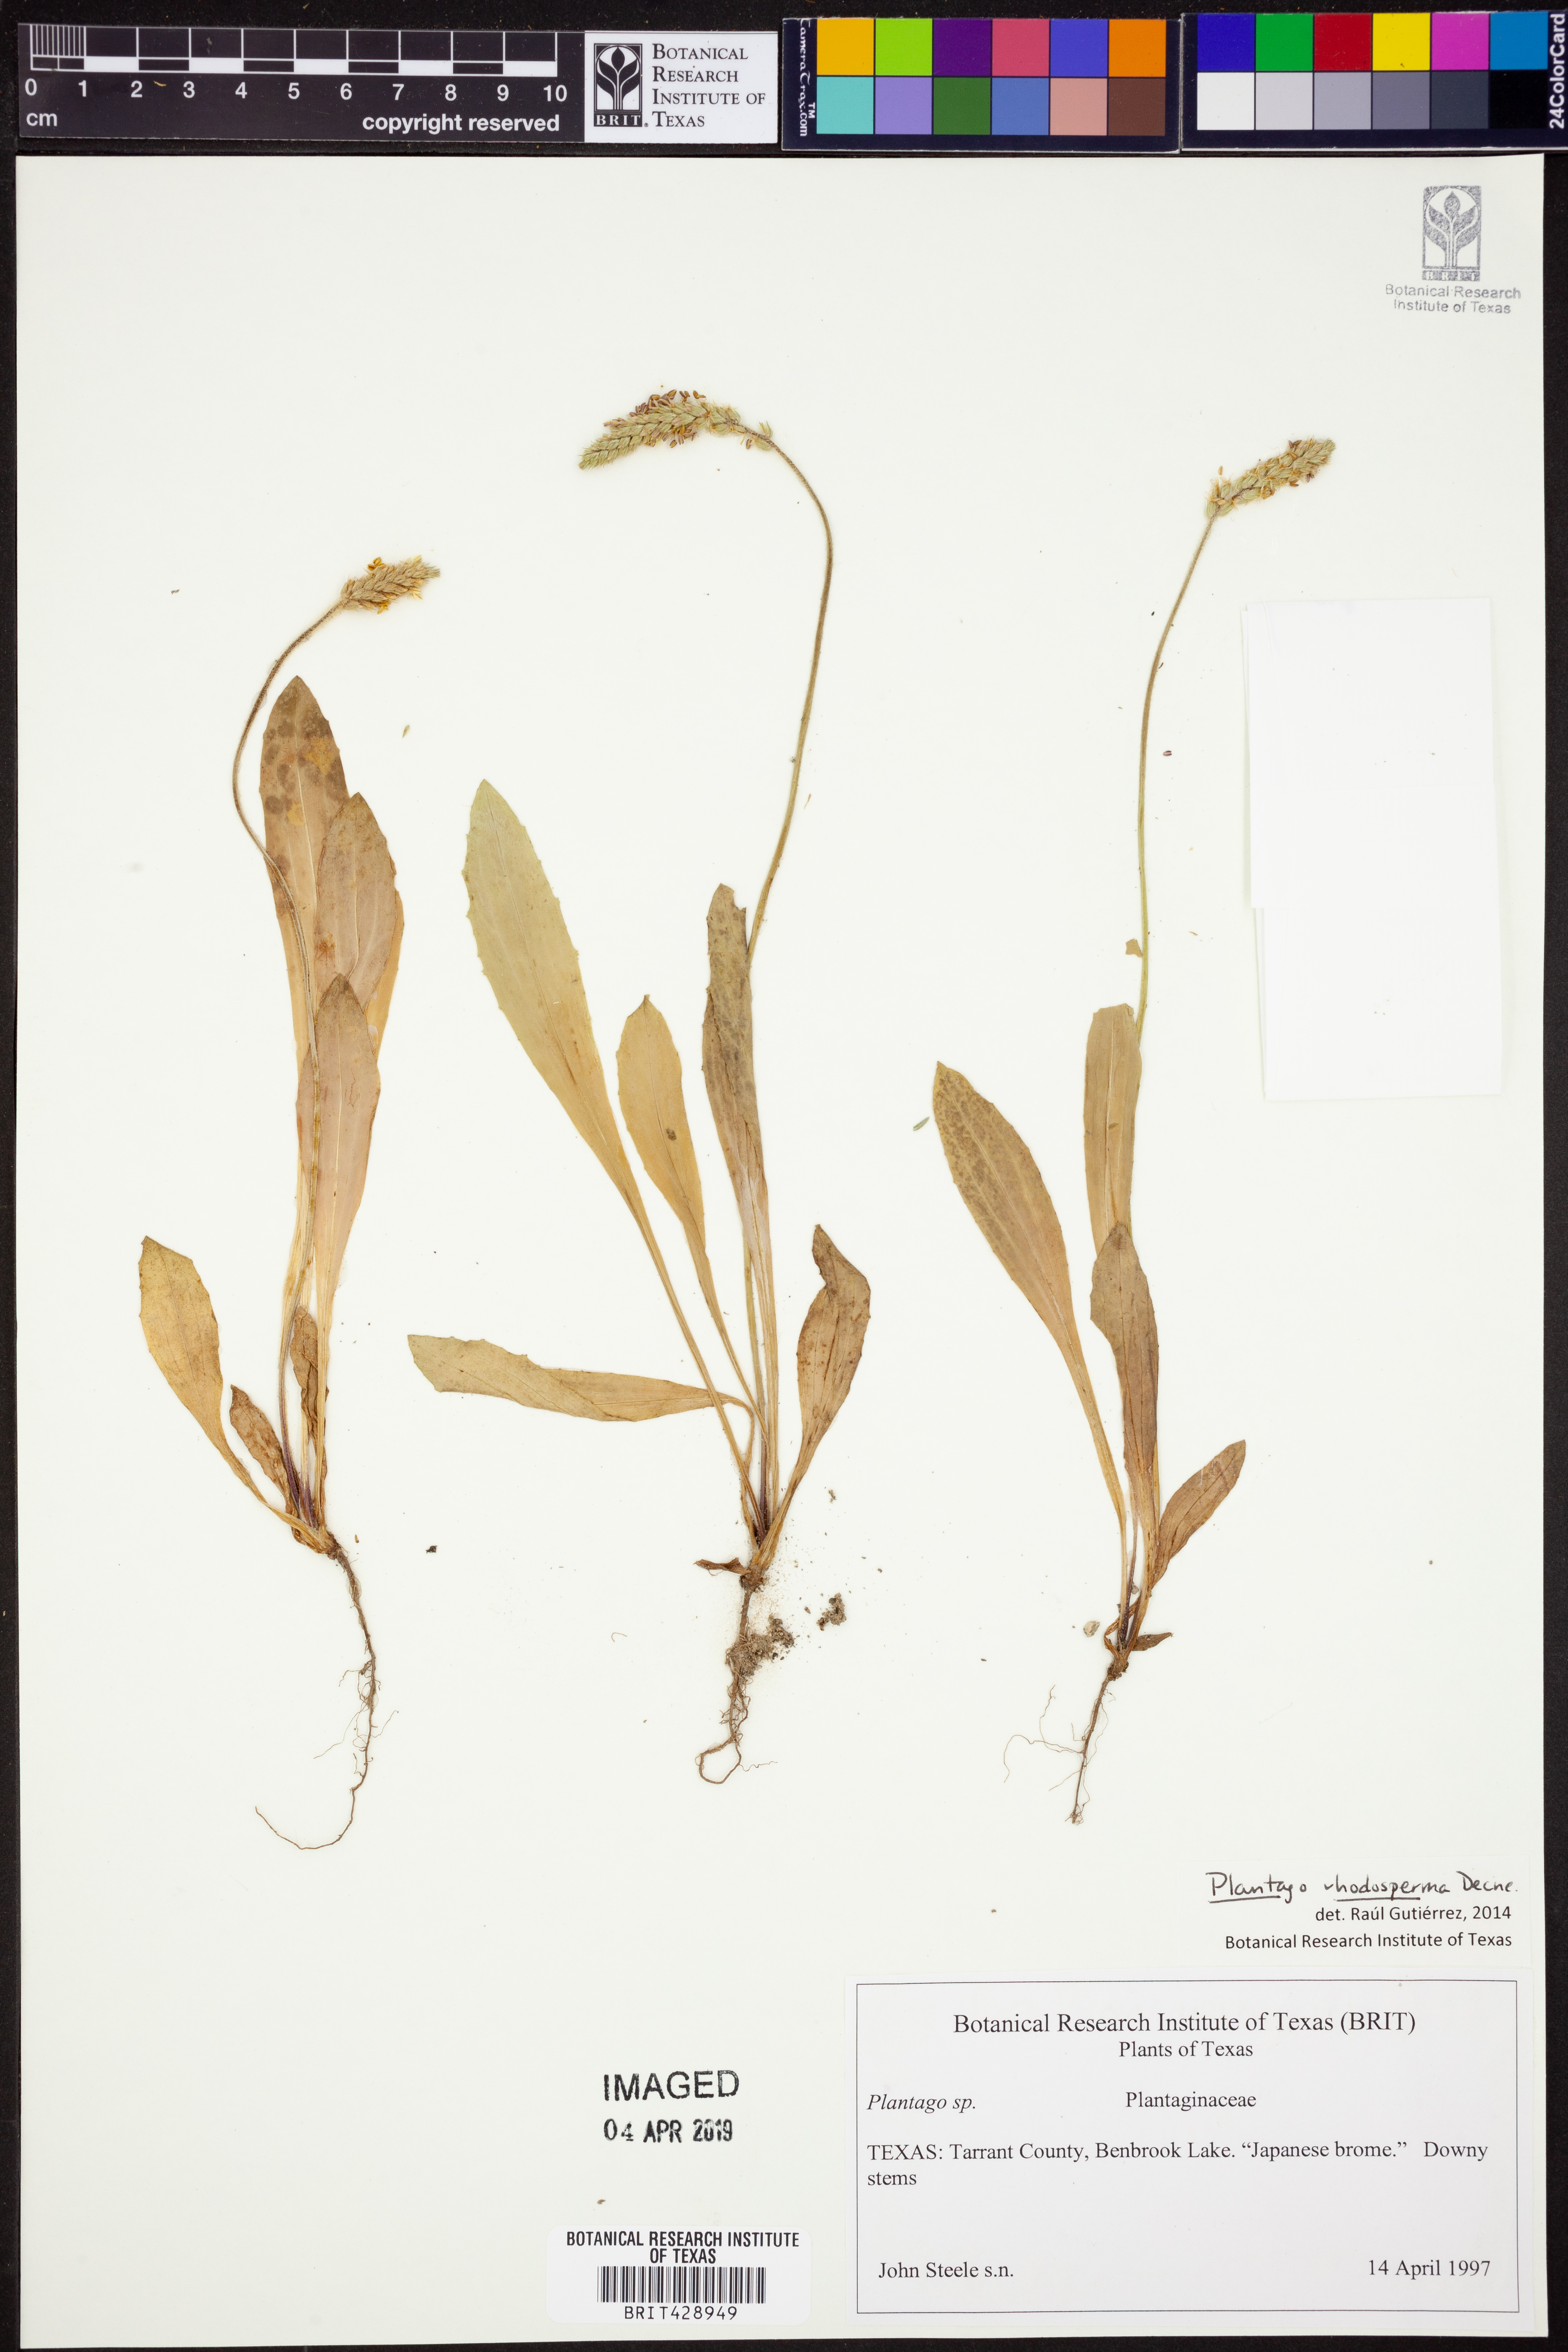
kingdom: Plantae
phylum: Tracheophyta
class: Magnoliopsida
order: Lamiales
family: Plantaginaceae
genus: Plantago
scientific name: Plantago rhodosperma
